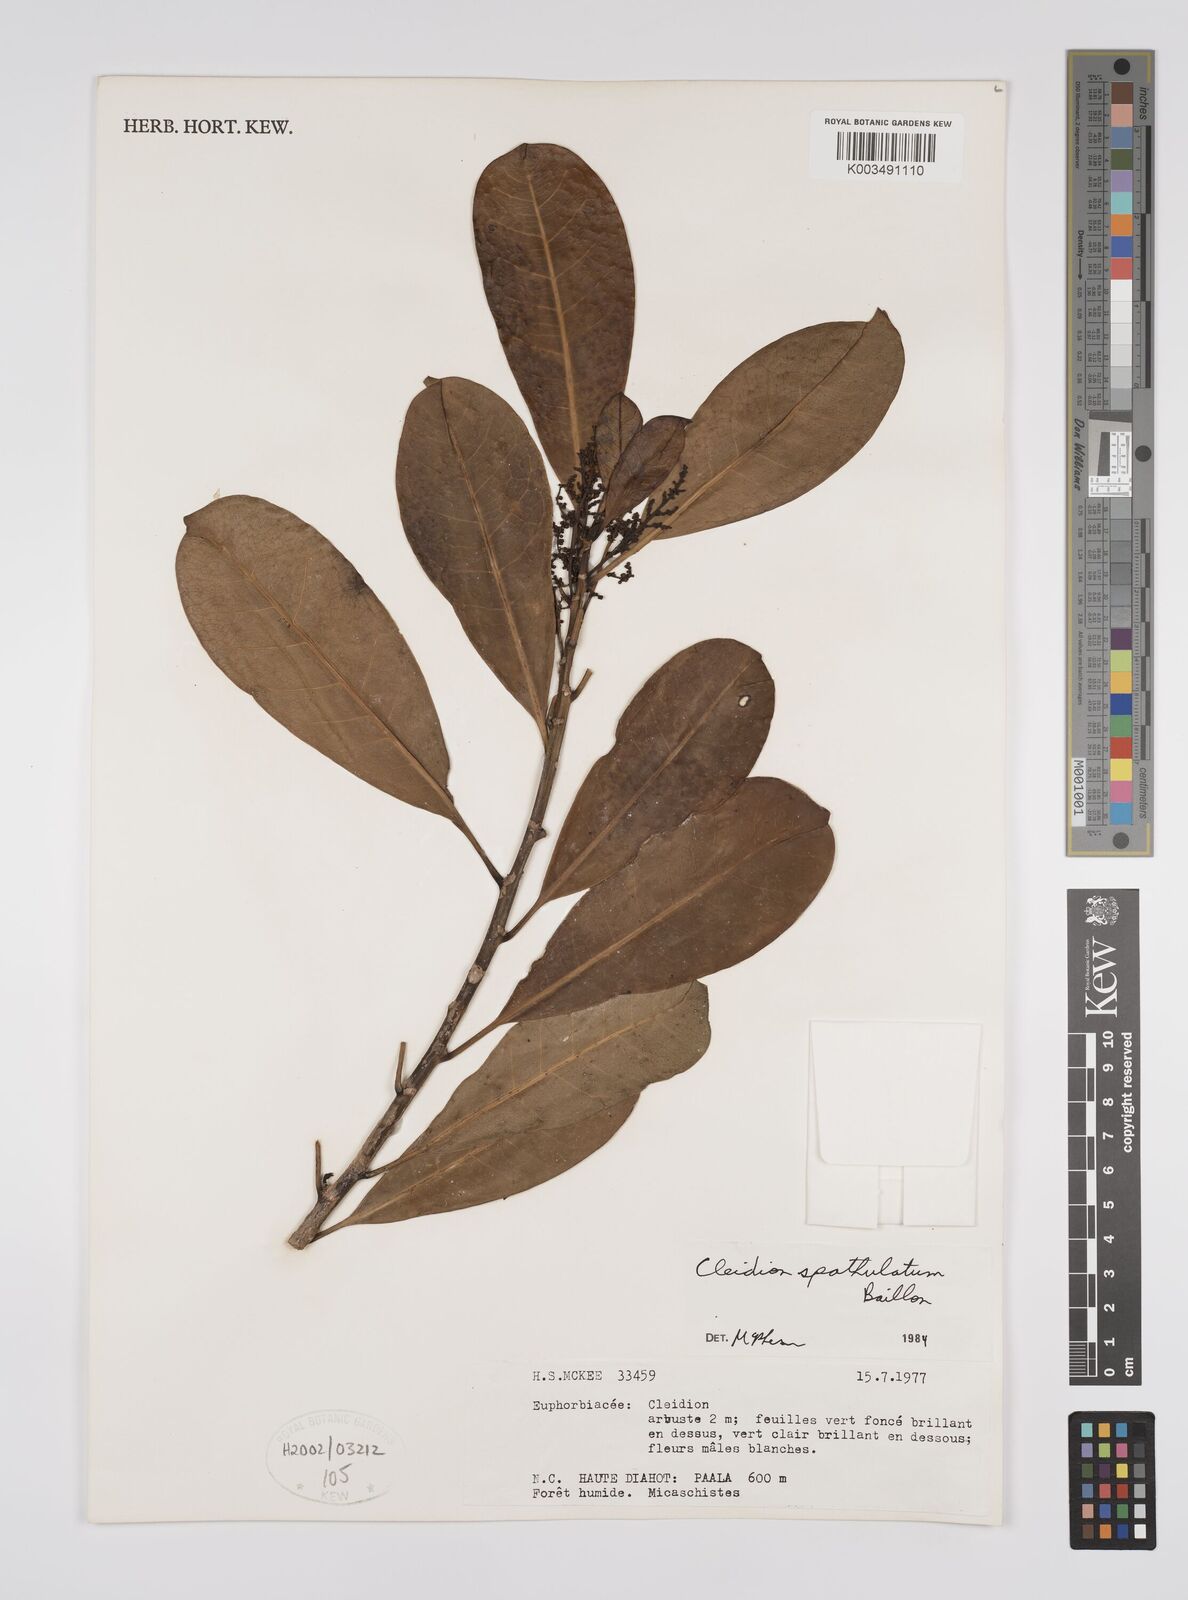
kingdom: Plantae
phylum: Tracheophyta
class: Magnoliopsida
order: Malpighiales
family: Euphorbiaceae
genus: Cleidion
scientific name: Cleidion spathulatum
